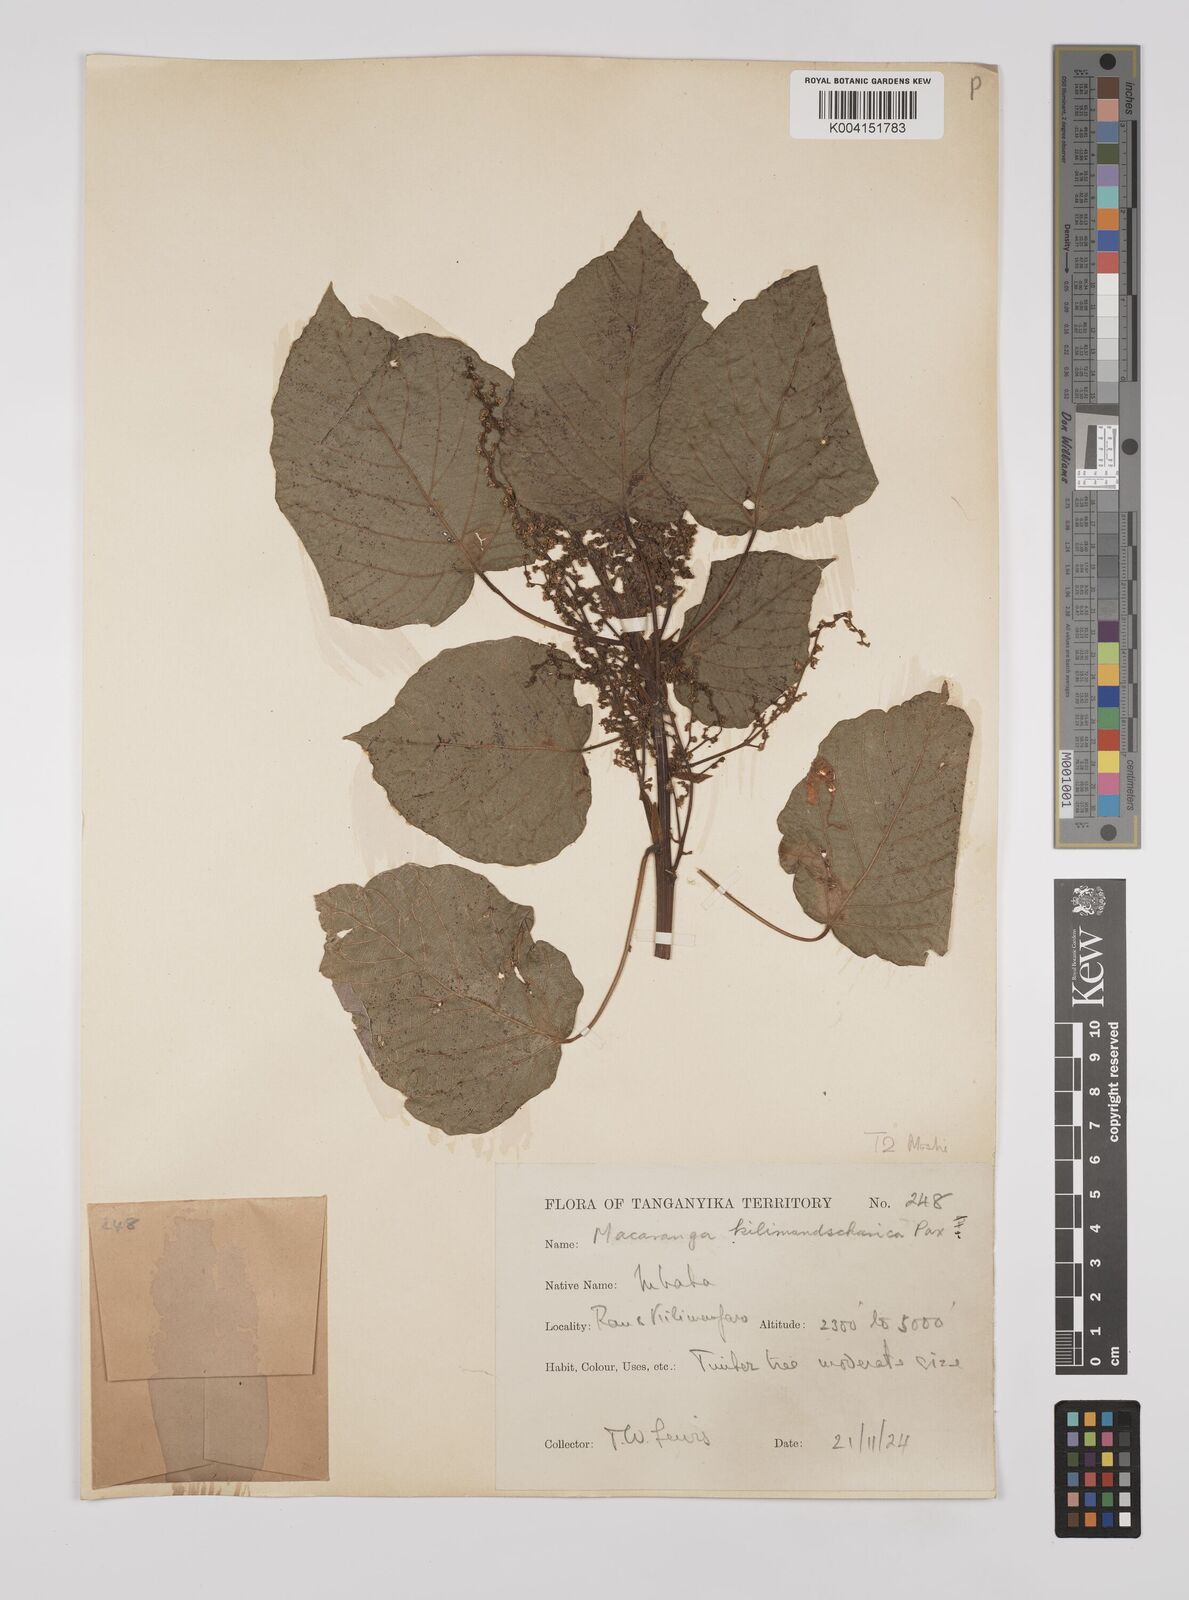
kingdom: Plantae
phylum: Tracheophyta
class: Magnoliopsida
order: Malpighiales
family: Euphorbiaceae
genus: Macaranga
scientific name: Macaranga capensis
